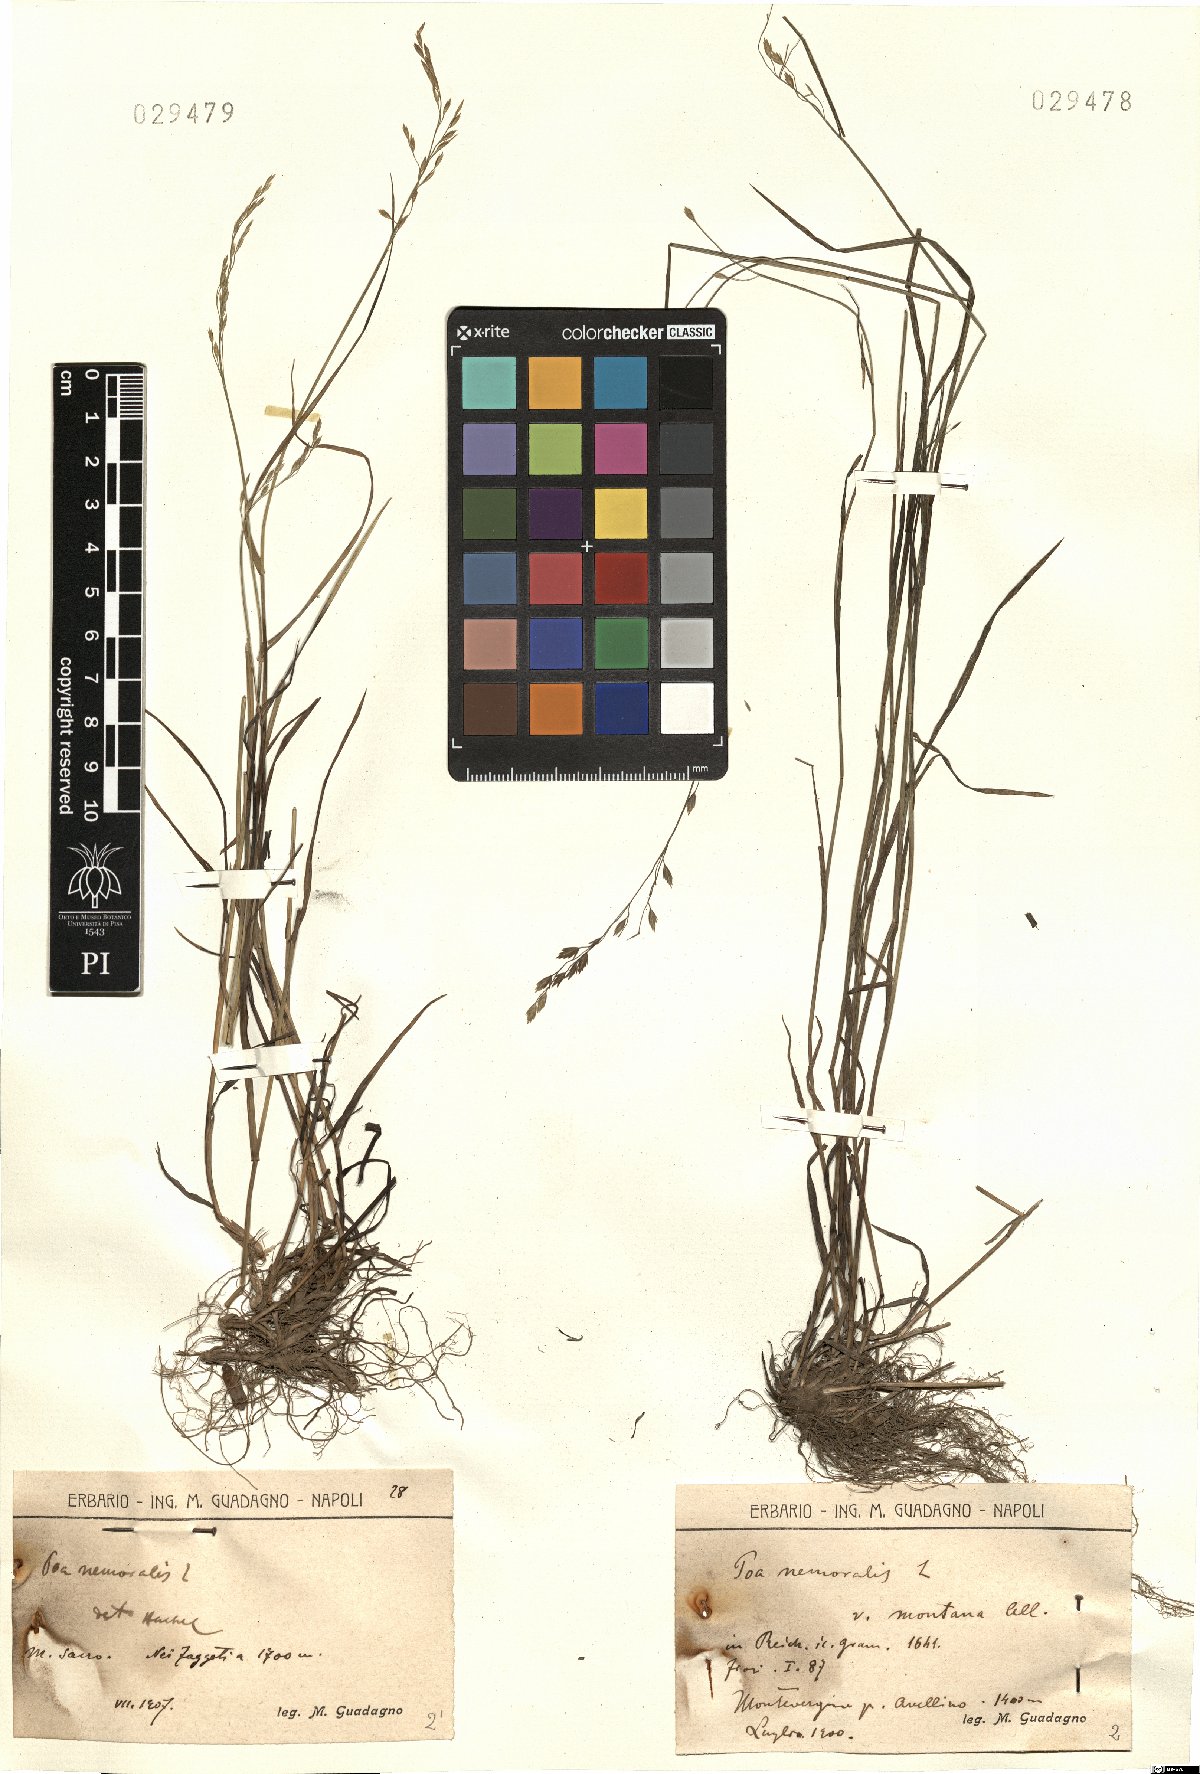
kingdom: Plantae
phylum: Tracheophyta
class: Liliopsida
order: Poales
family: Poaceae
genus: Poa
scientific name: Poa nemoralis
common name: Wood bluegrass
